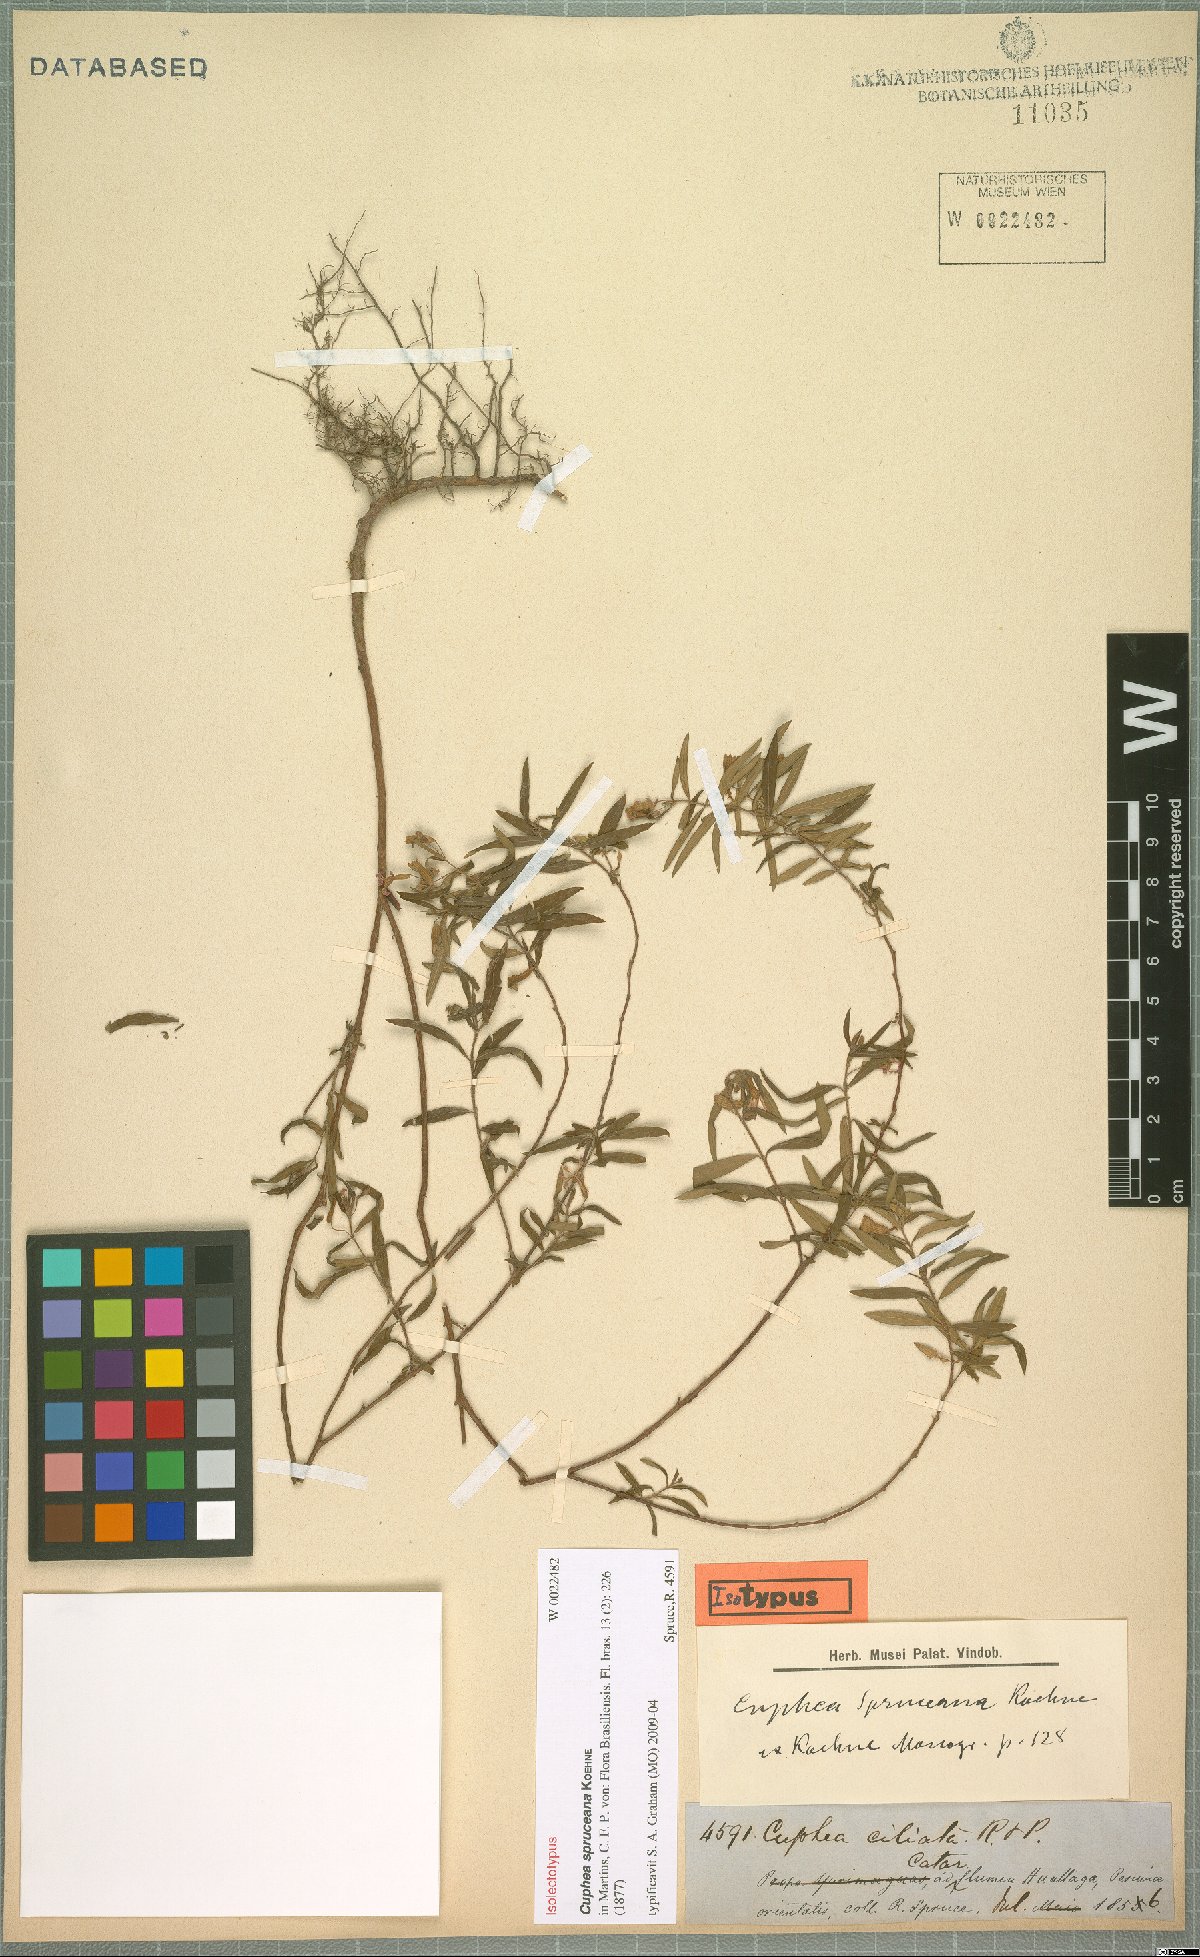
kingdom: Plantae
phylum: Tracheophyta
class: Magnoliopsida
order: Myrtales
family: Lythraceae
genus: Cuphea
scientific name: Cuphea spruceana
